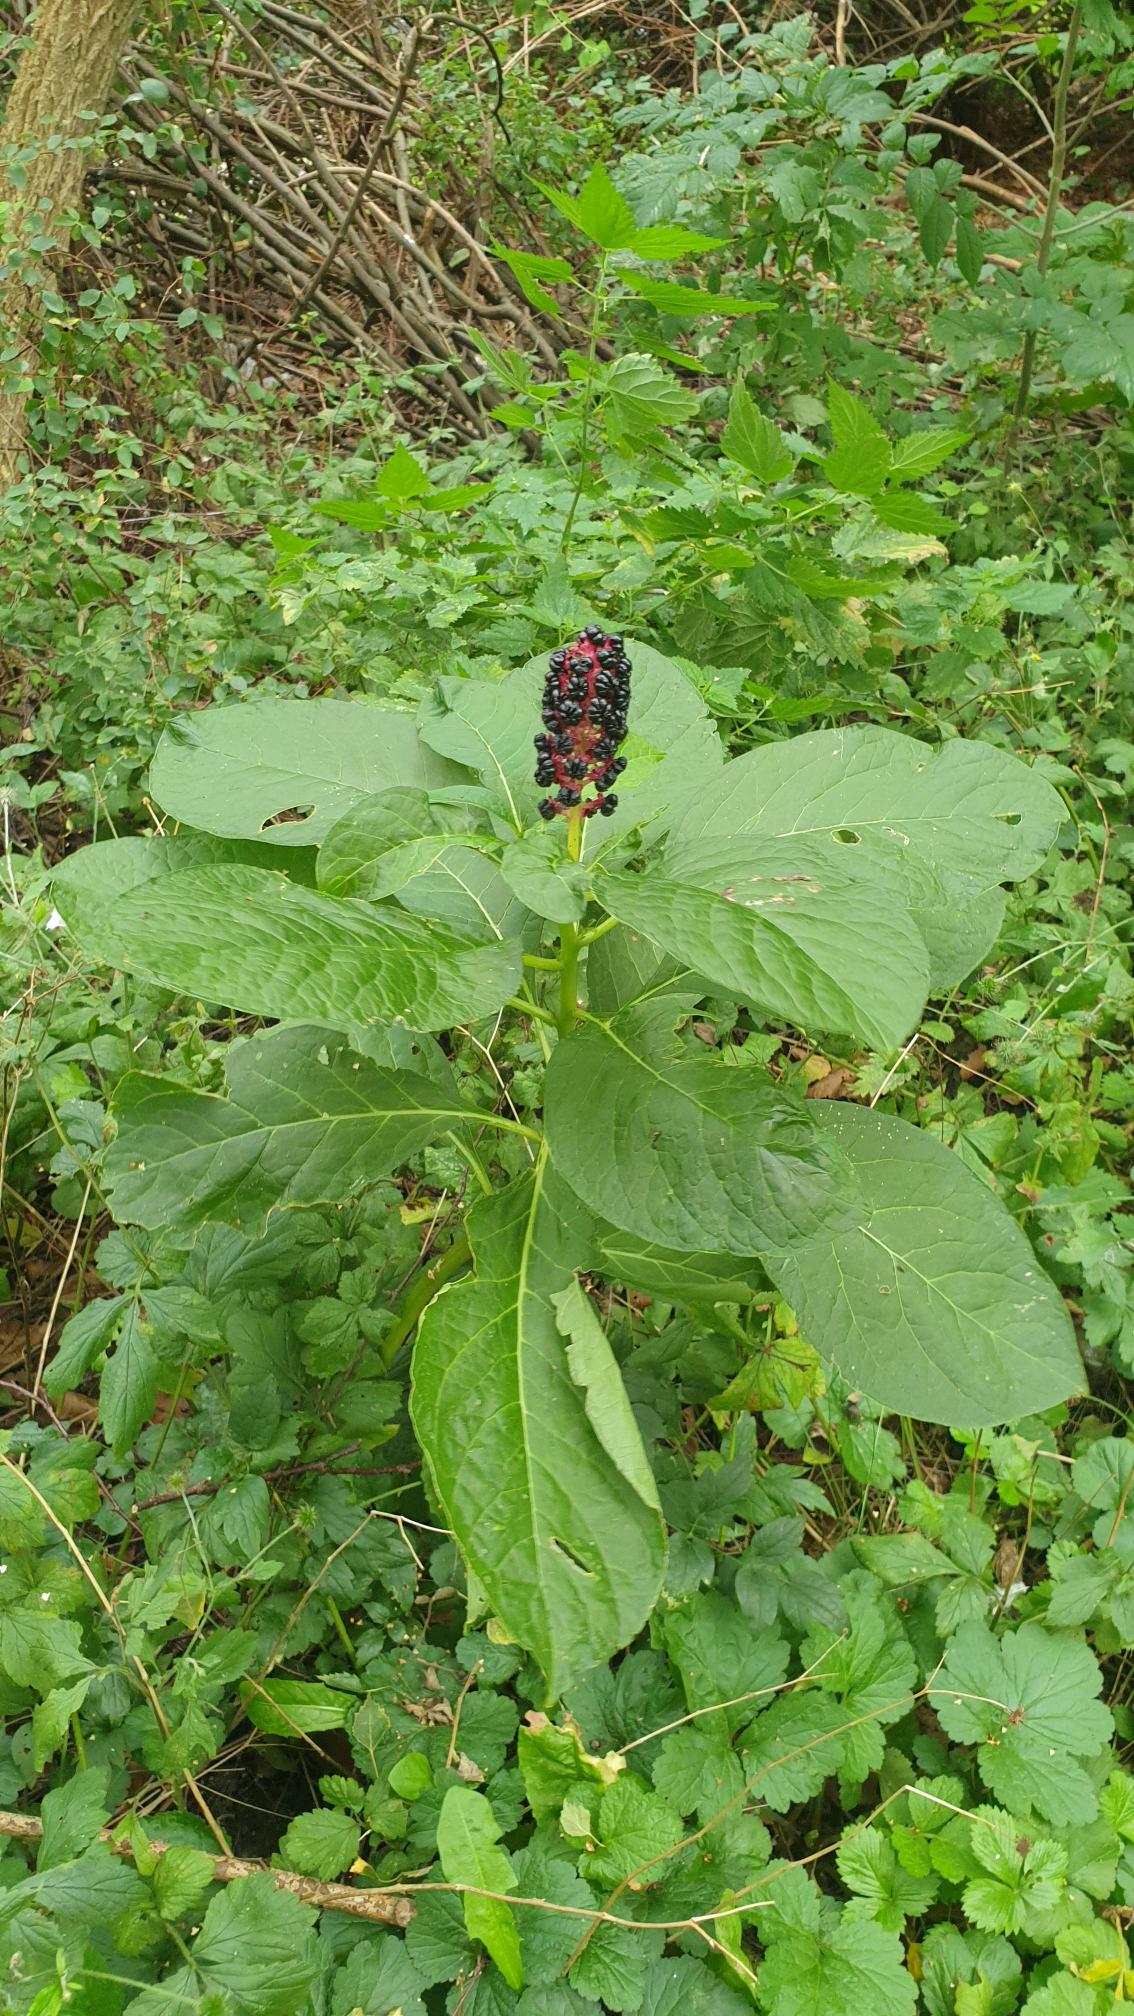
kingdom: Plantae
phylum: Tracheophyta
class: Magnoliopsida
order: Caryophyllales
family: Phytolaccaceae
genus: Phytolacca
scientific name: Phytolacca acinosa
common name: Asiatisk kermesbær
